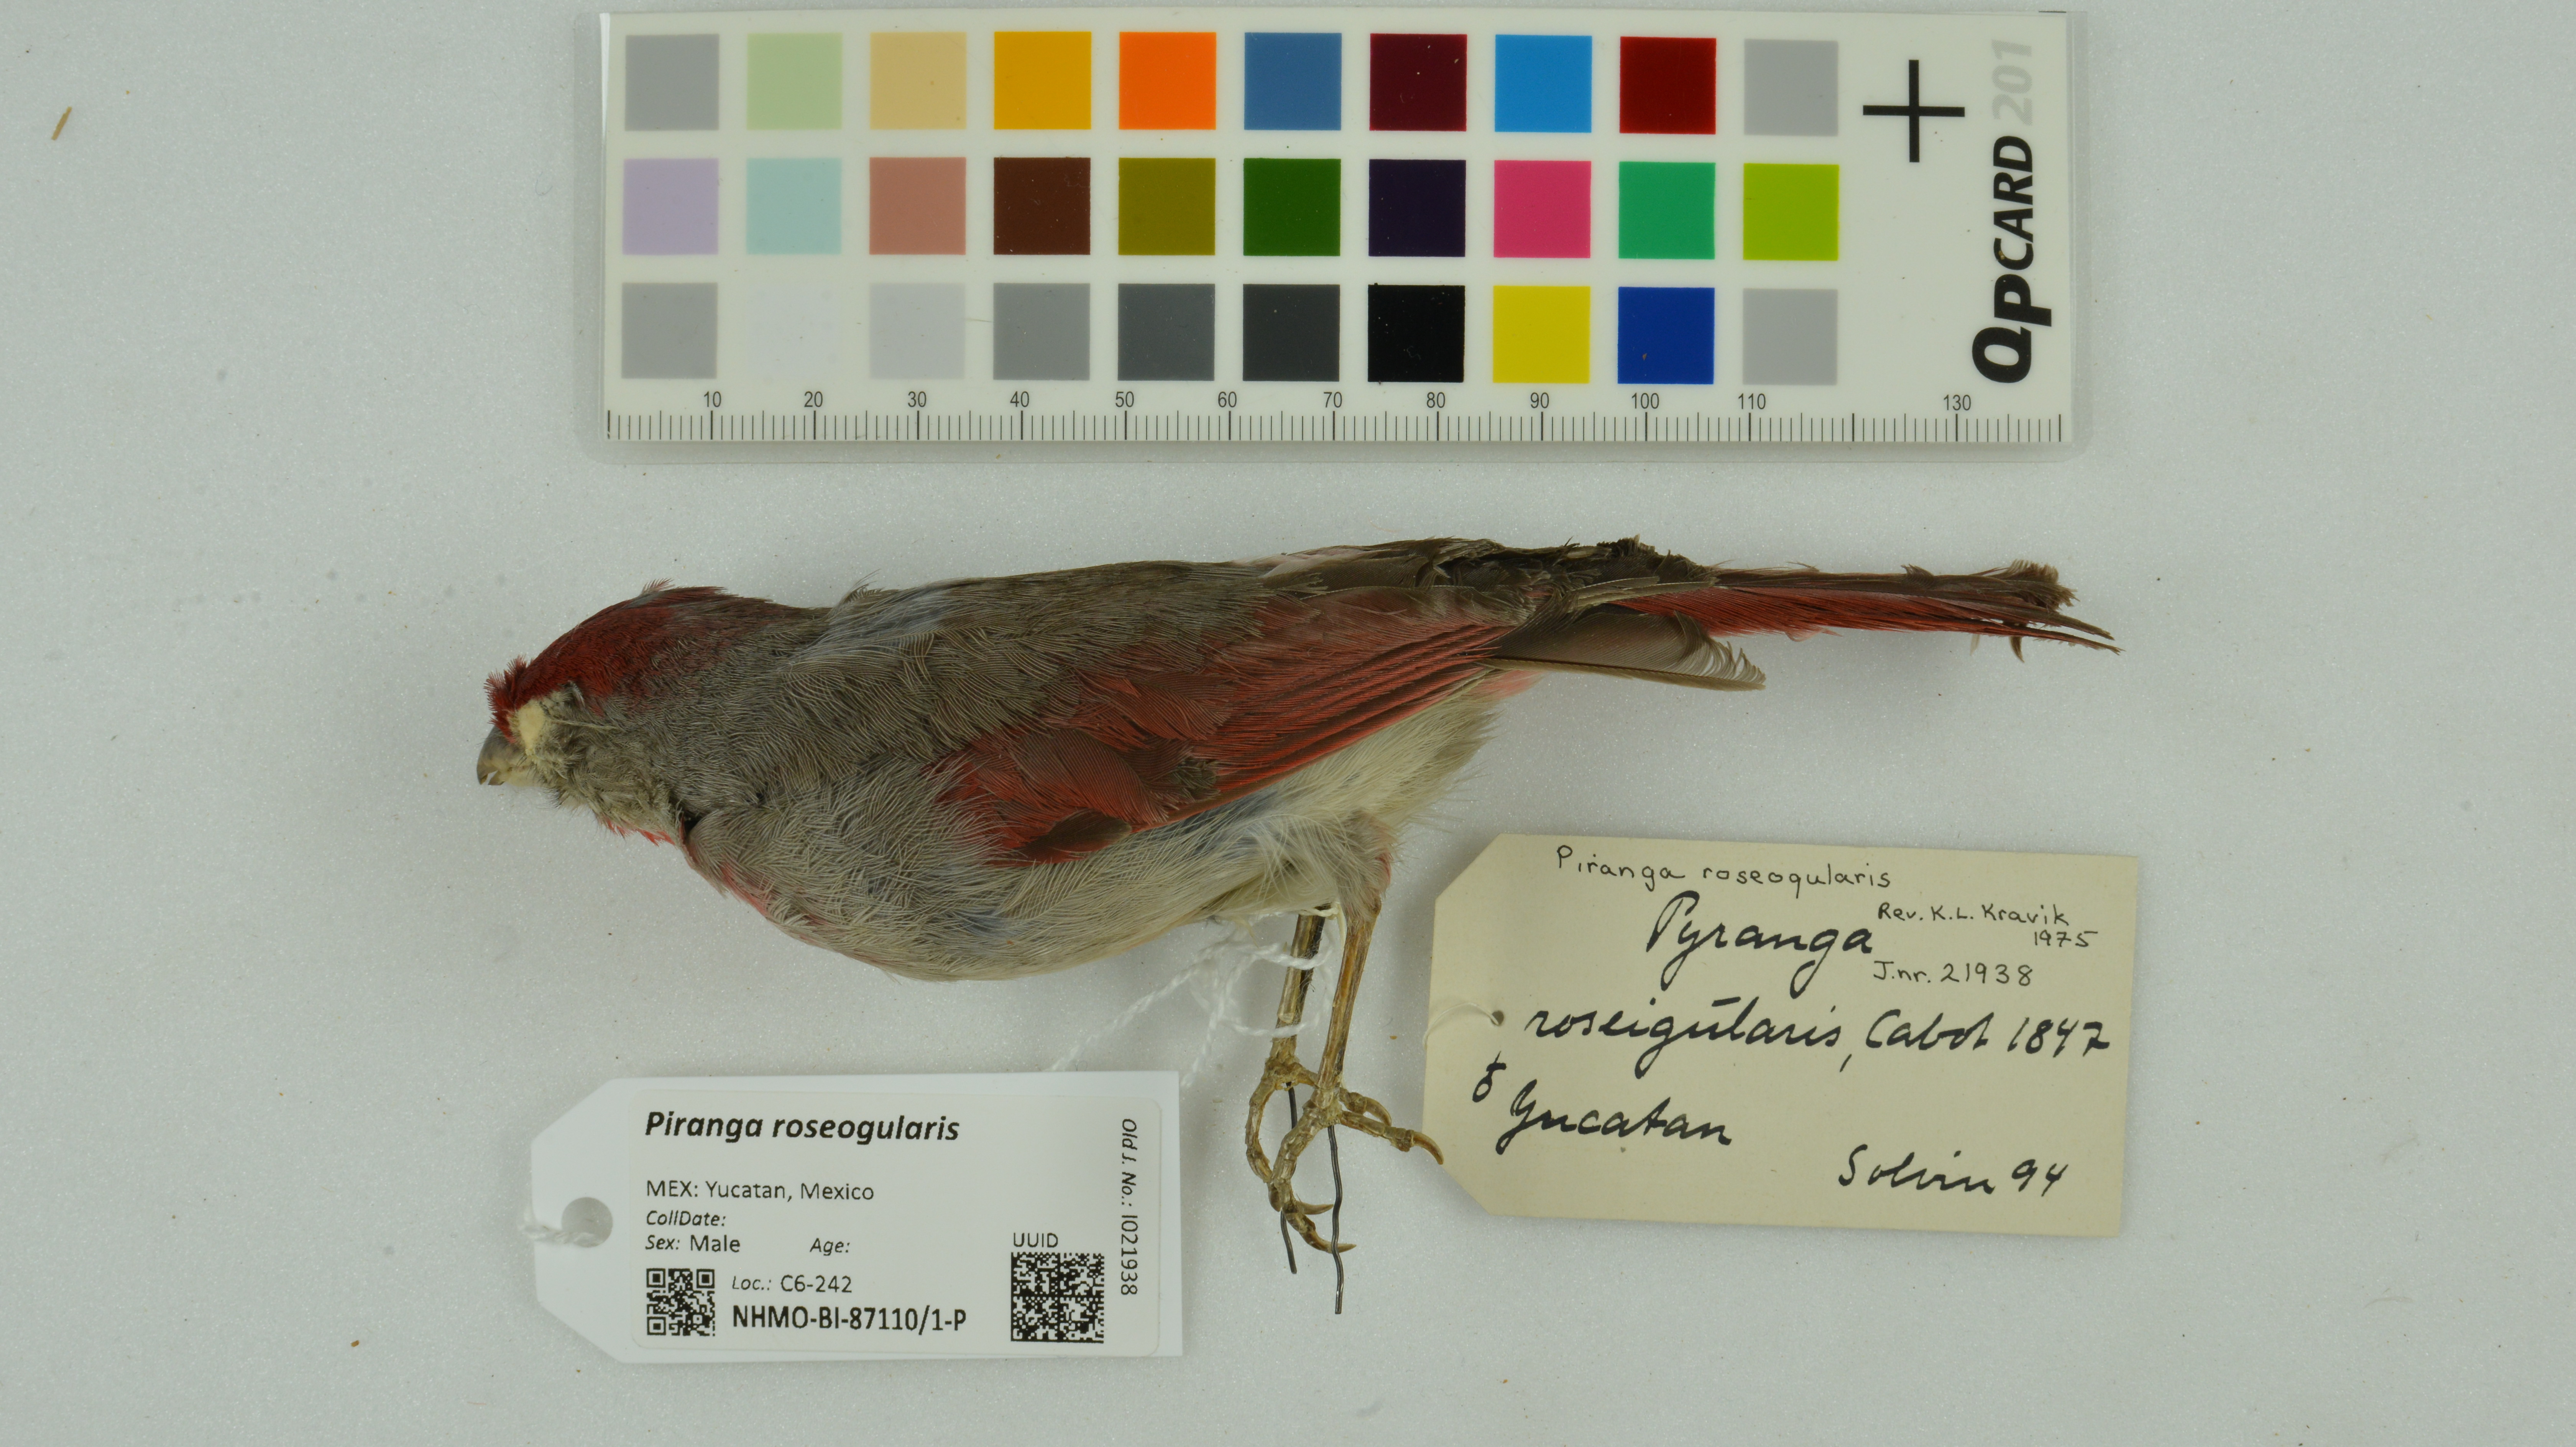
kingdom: Animalia
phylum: Chordata
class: Aves
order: Passeriformes
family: Cardinalidae
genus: Piranga
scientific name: Piranga roseogularis
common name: Rose-throated tanager
